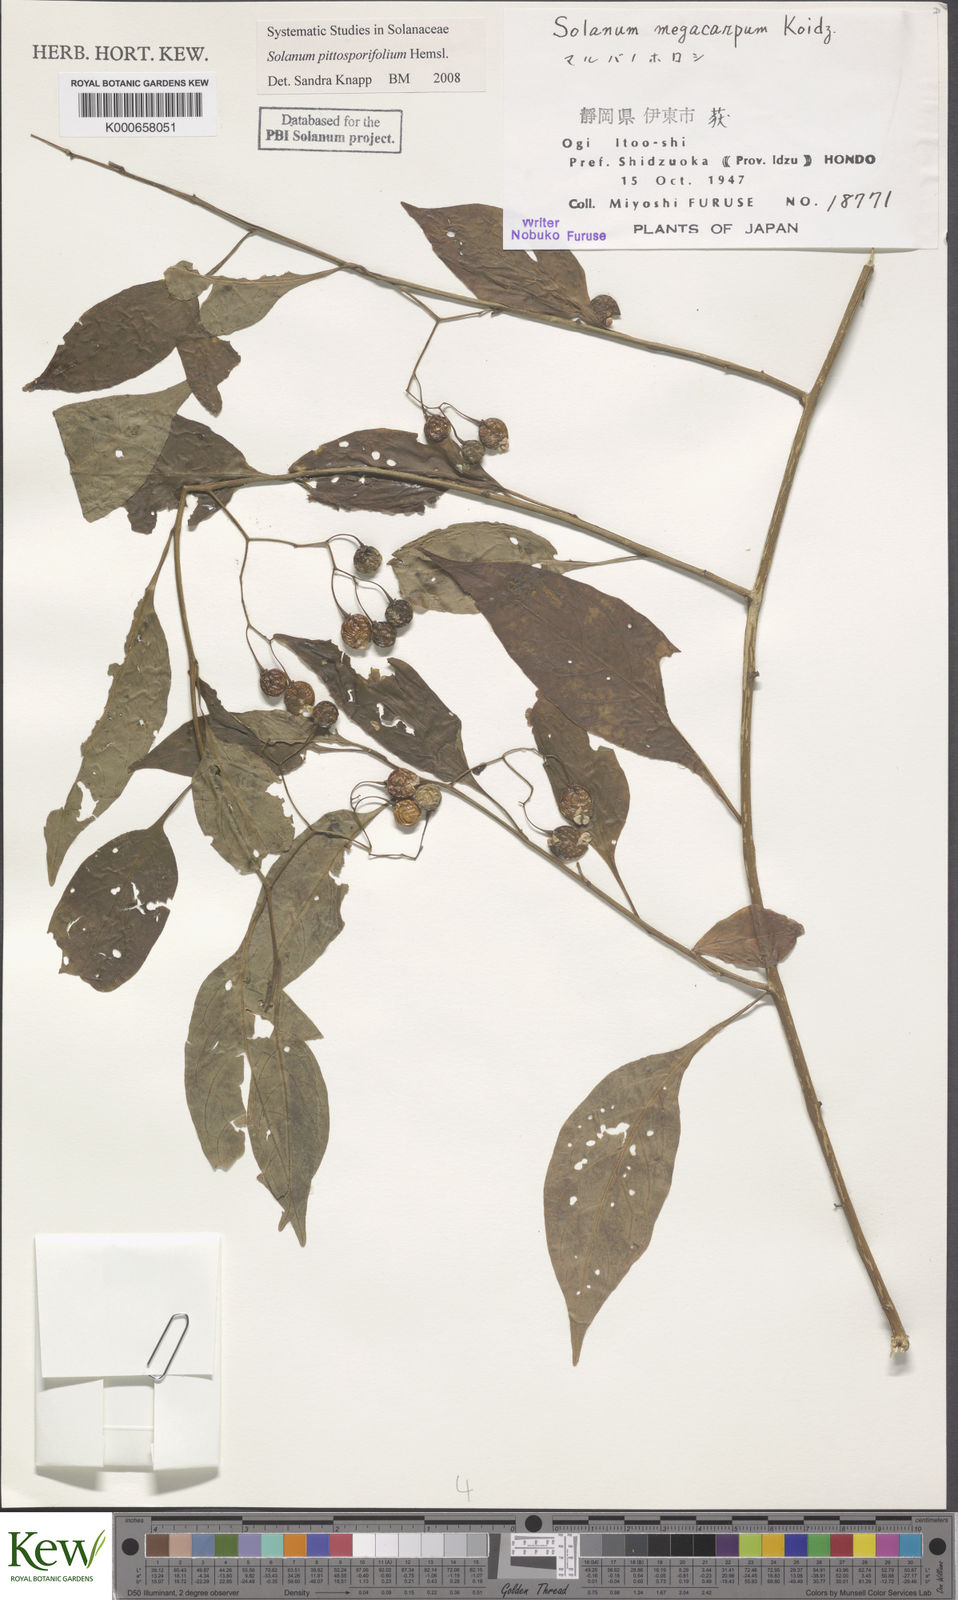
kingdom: Plantae
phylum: Tracheophyta
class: Magnoliopsida
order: Solanales
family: Solanaceae
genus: Solanum
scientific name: Solanum pittosporifolium
